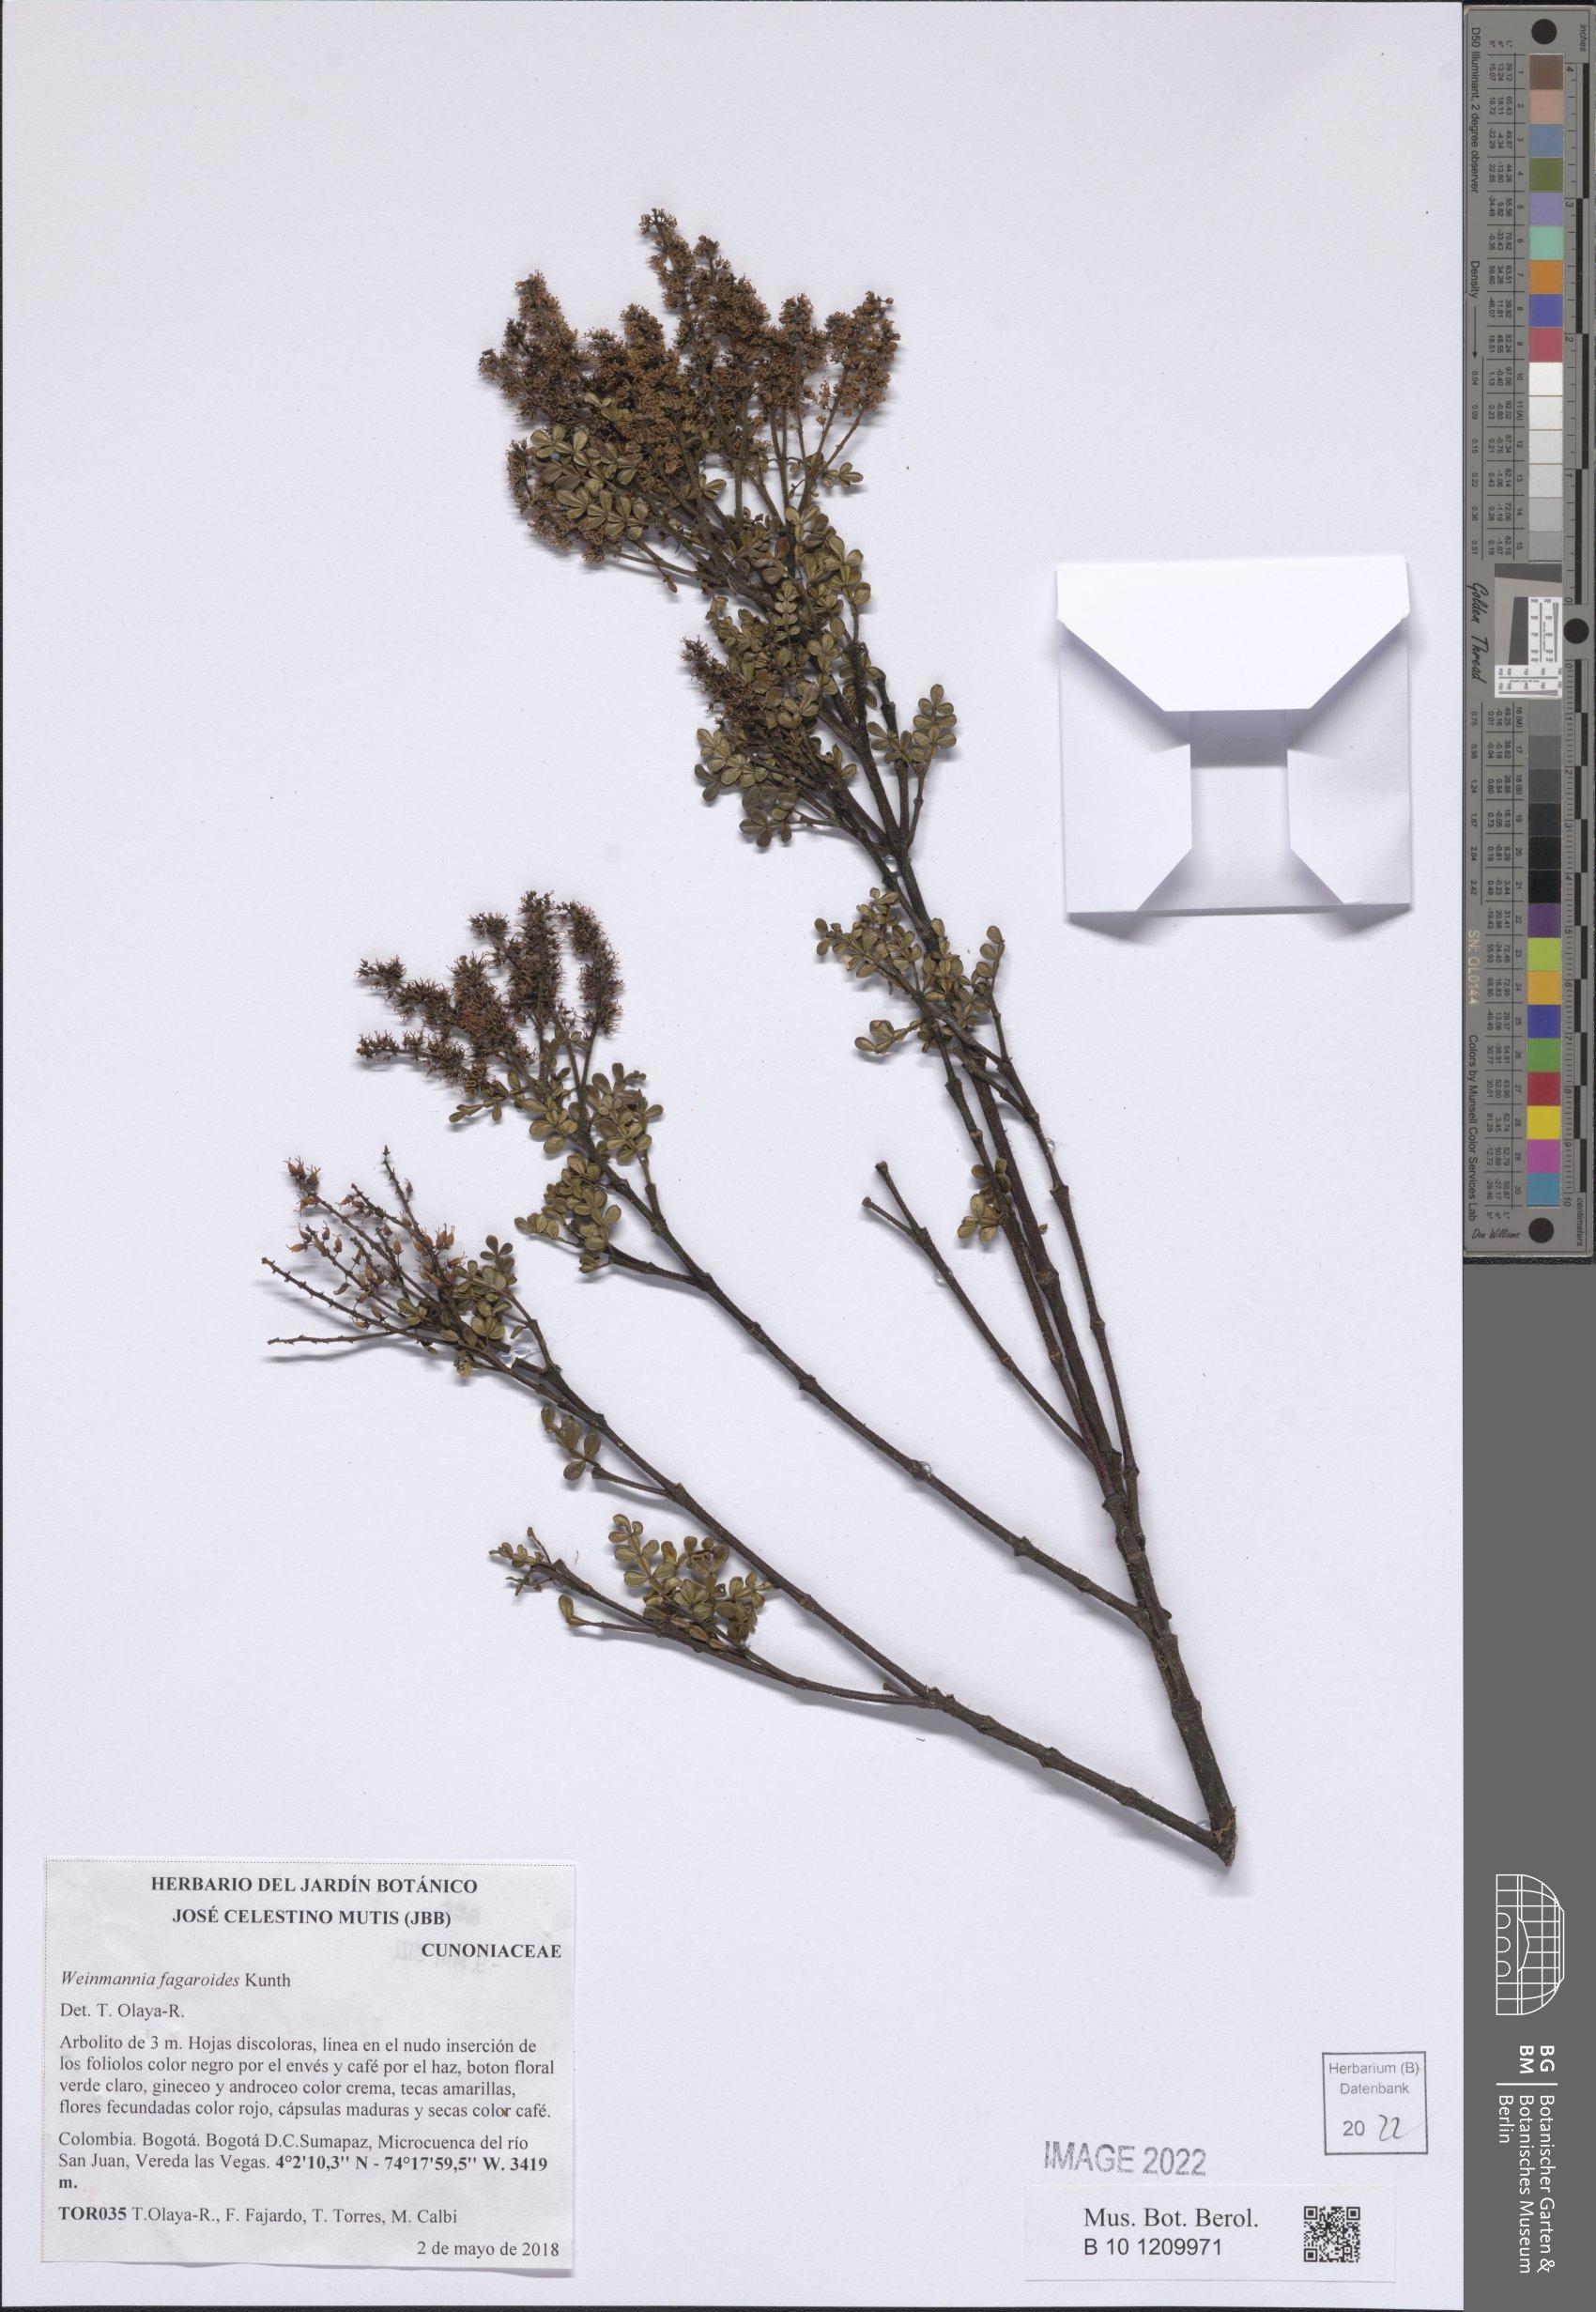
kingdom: Plantae
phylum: Tracheophyta
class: Magnoliopsida
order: Oxalidales
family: Cunoniaceae
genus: Weinmannia
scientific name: Weinmannia fagaroides
